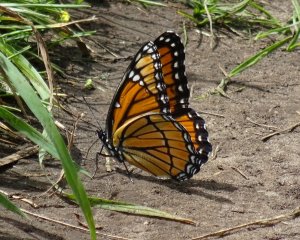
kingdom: Animalia
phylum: Arthropoda
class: Insecta
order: Lepidoptera
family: Nymphalidae
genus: Limenitis
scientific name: Limenitis archippus
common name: Viceroy
